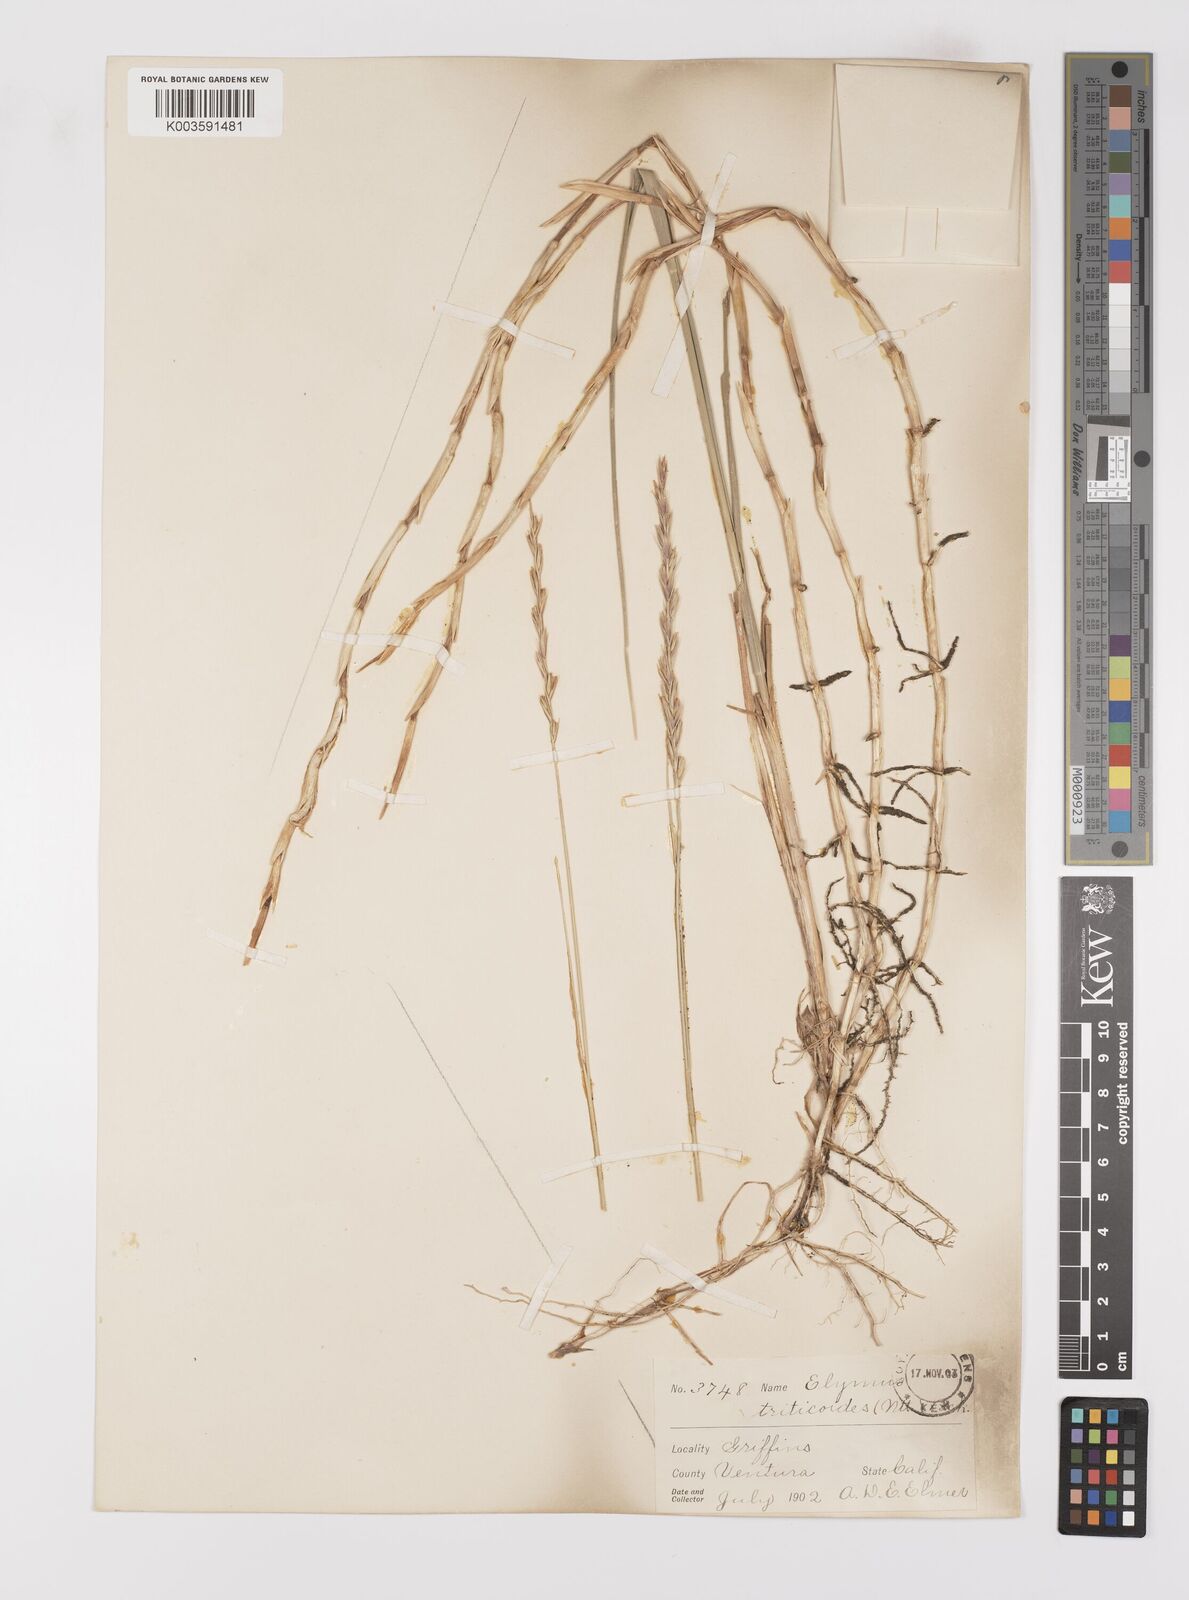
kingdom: Plantae
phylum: Tracheophyta
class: Liliopsida
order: Poales
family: Poaceae
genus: Leymus
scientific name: Leymus triticoides
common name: Beardless wild rye
